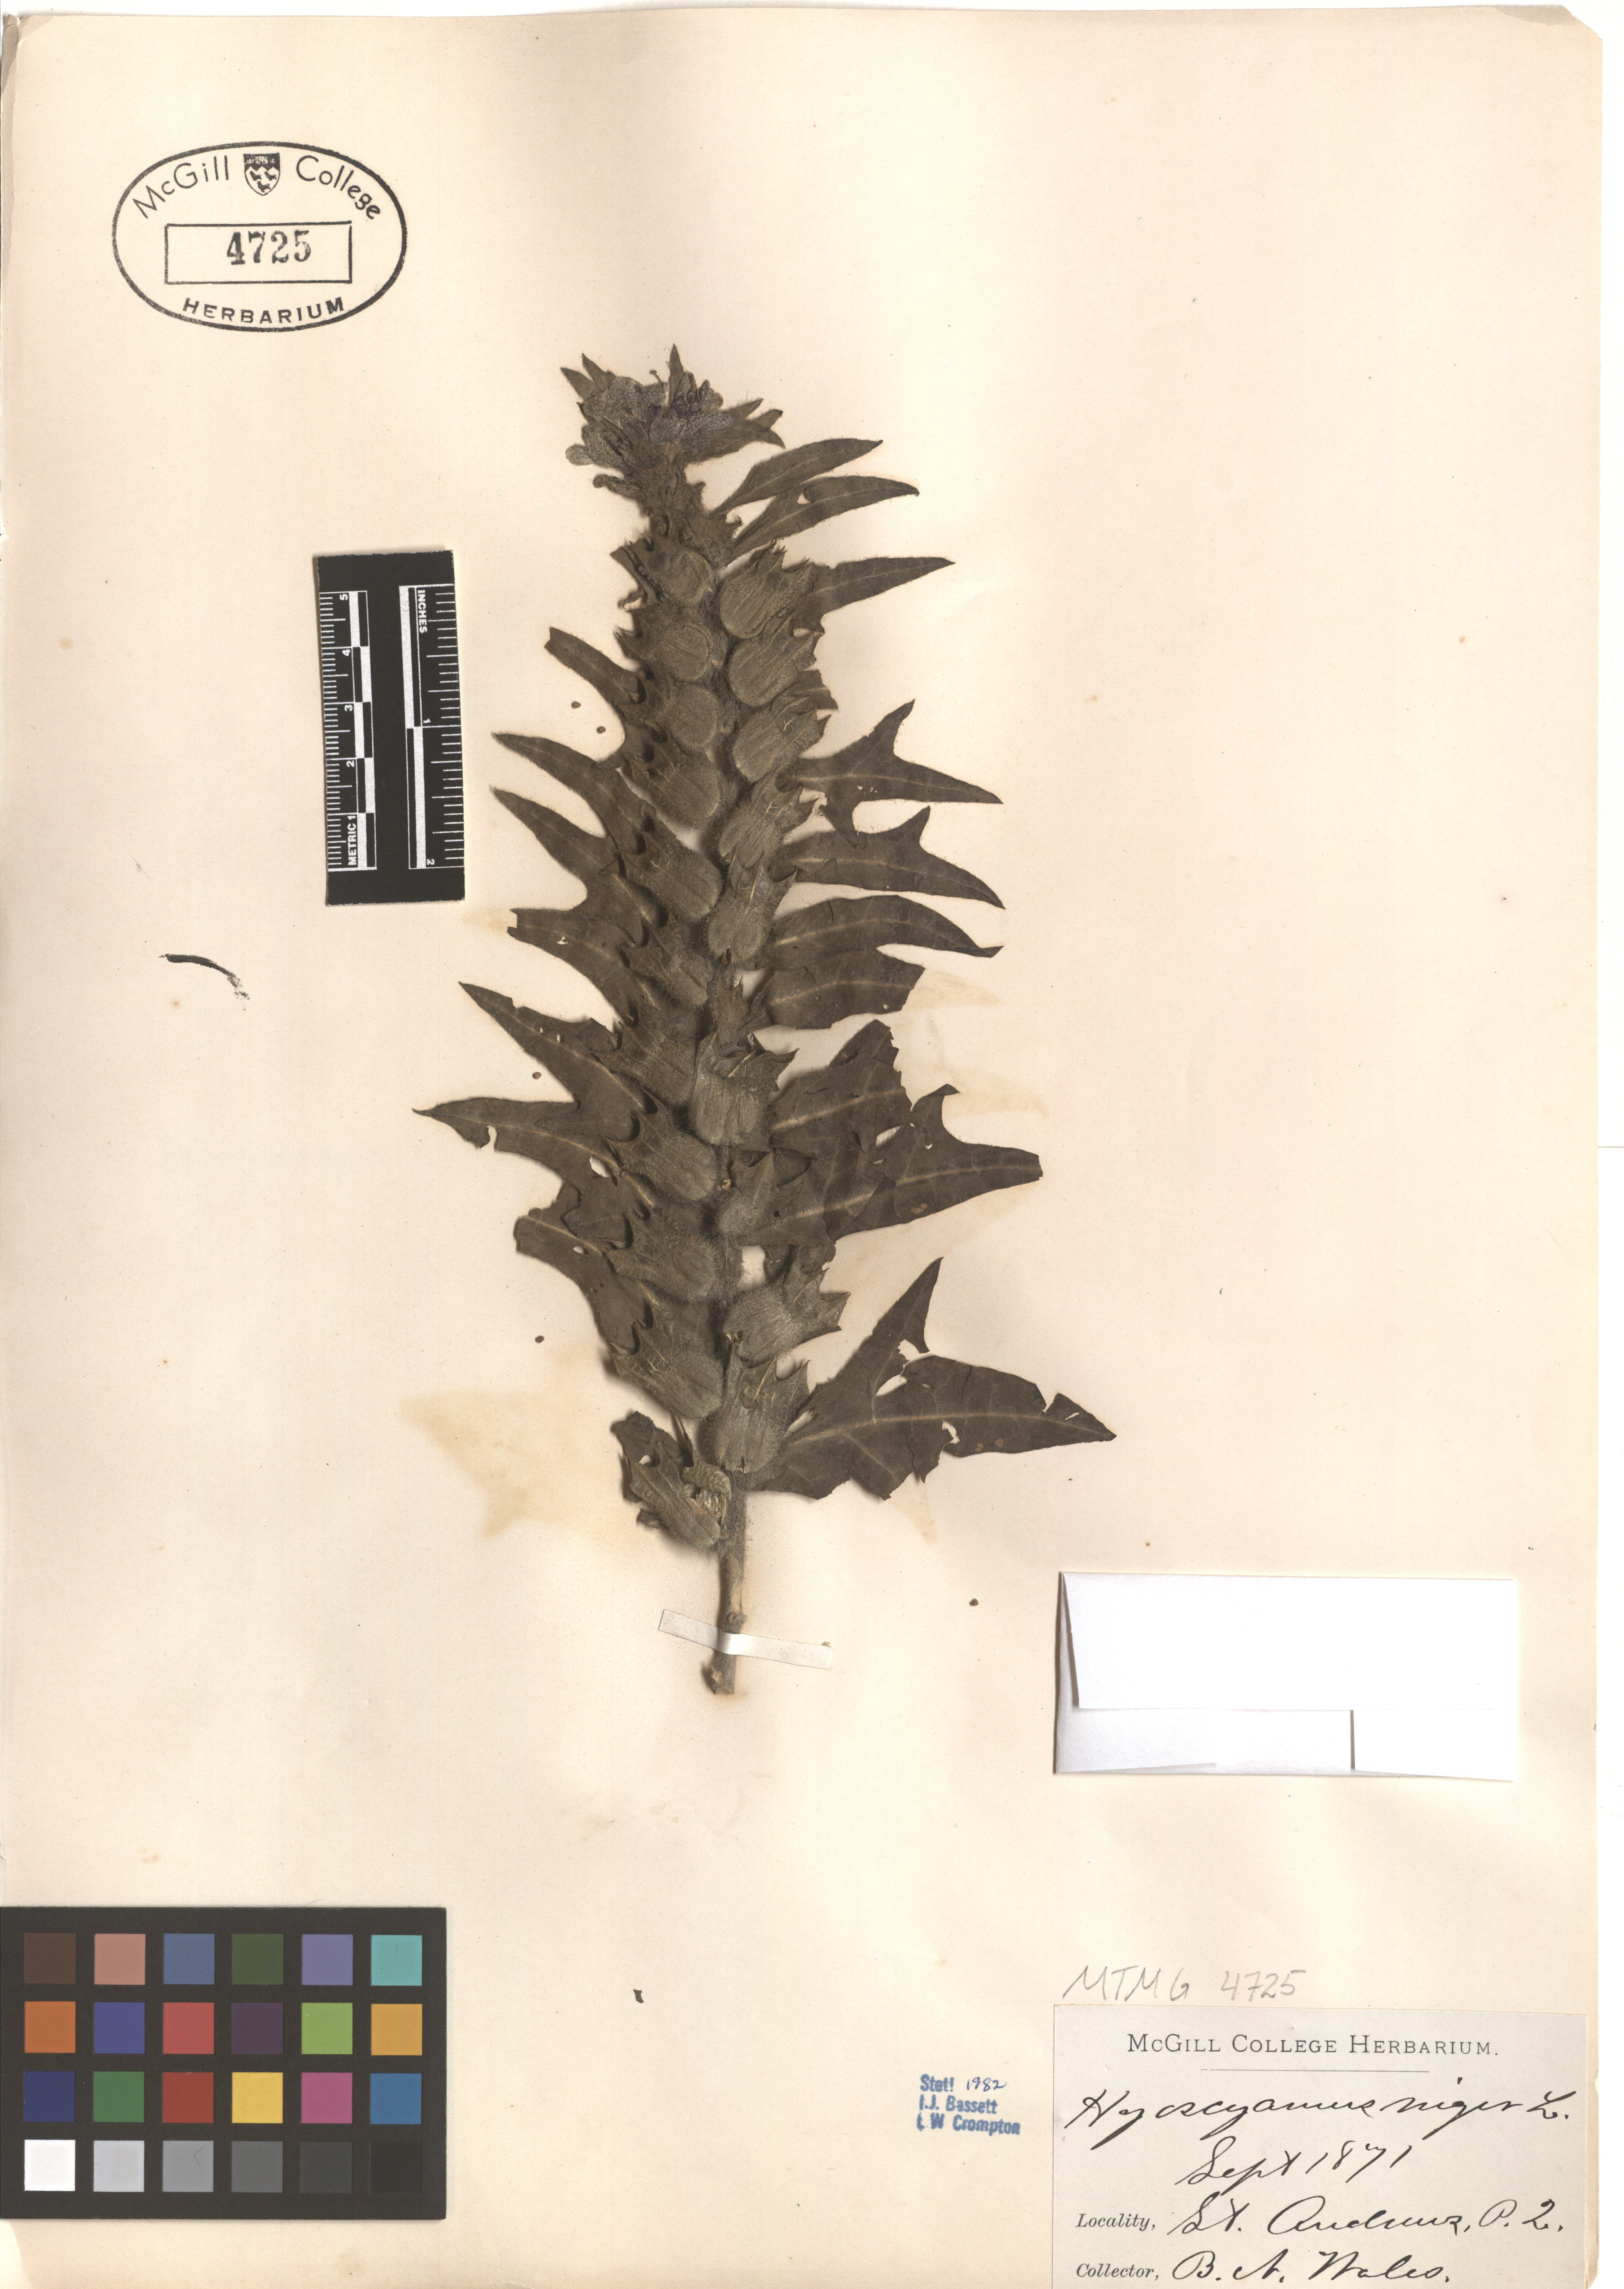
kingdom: Plantae
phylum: Tracheophyta
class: Magnoliopsida
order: Solanales
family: Solanaceae
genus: Hyoscyamus
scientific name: Hyoscyamus niger
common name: Henbane
